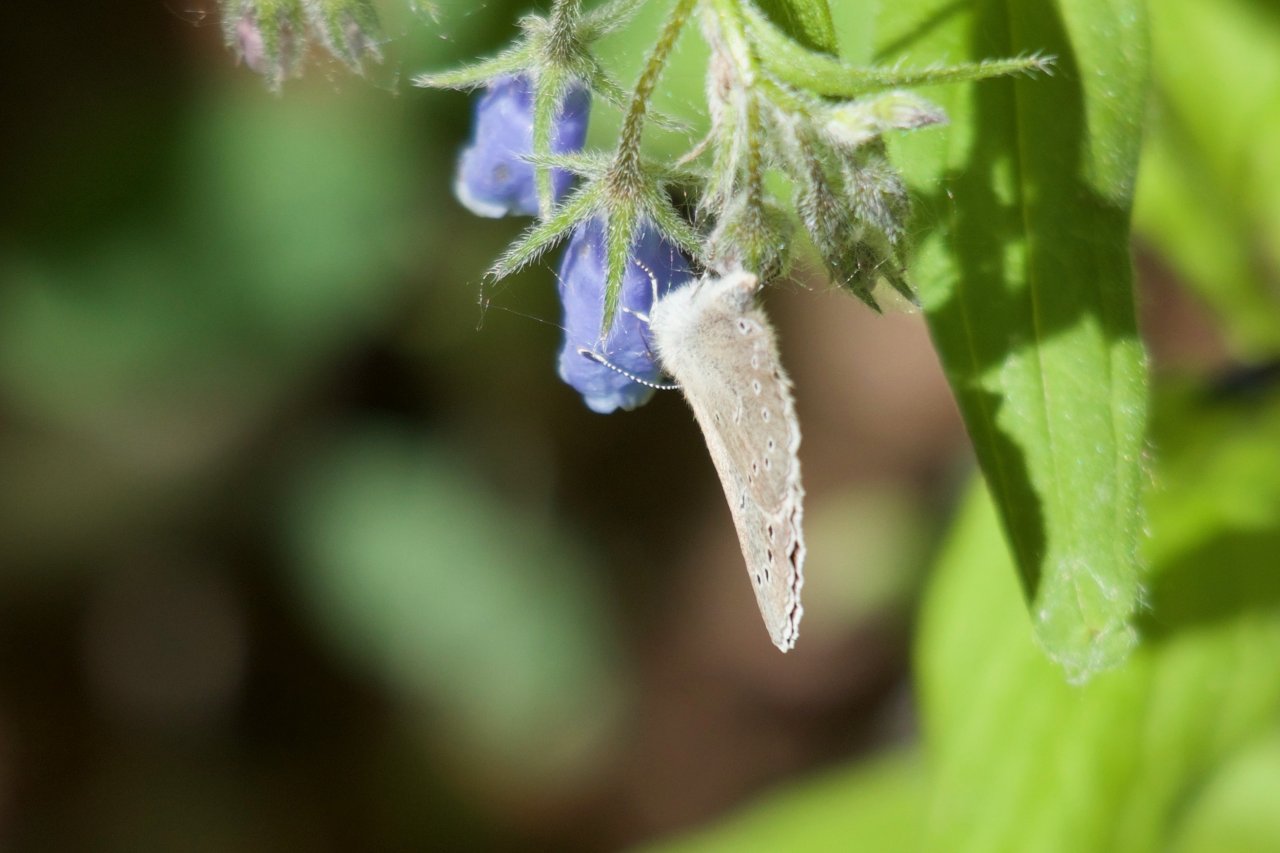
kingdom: Animalia
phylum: Arthropoda
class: Insecta
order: Lepidoptera
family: Lycaenidae
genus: Glaucopsyche
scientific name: Glaucopsyche lygdamus
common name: Silvery Blue
